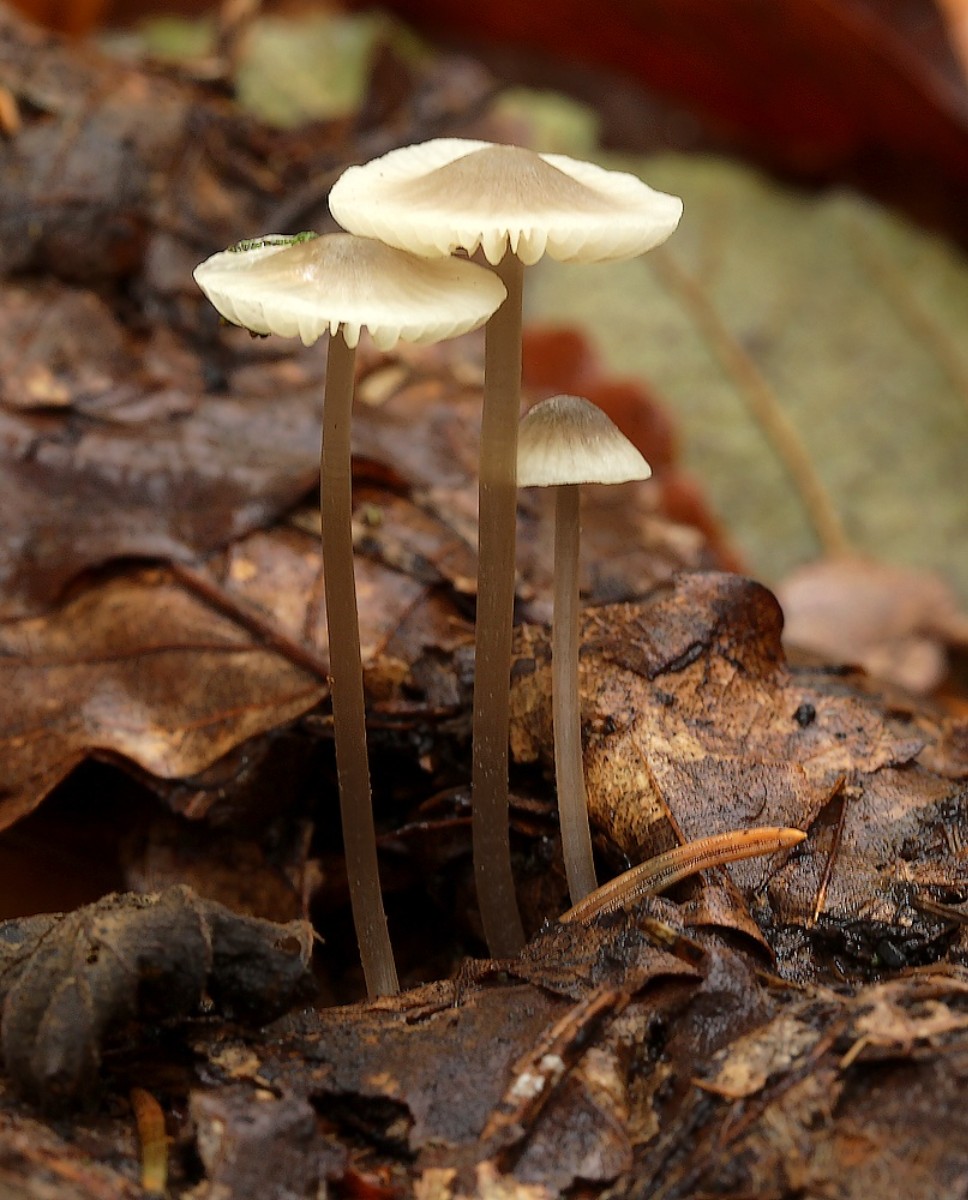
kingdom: Fungi
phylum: Basidiomycota
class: Agaricomycetes
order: Agaricales
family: Mycenaceae
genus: Mycena
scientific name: Mycena flavescens
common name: grågul huesvamp
